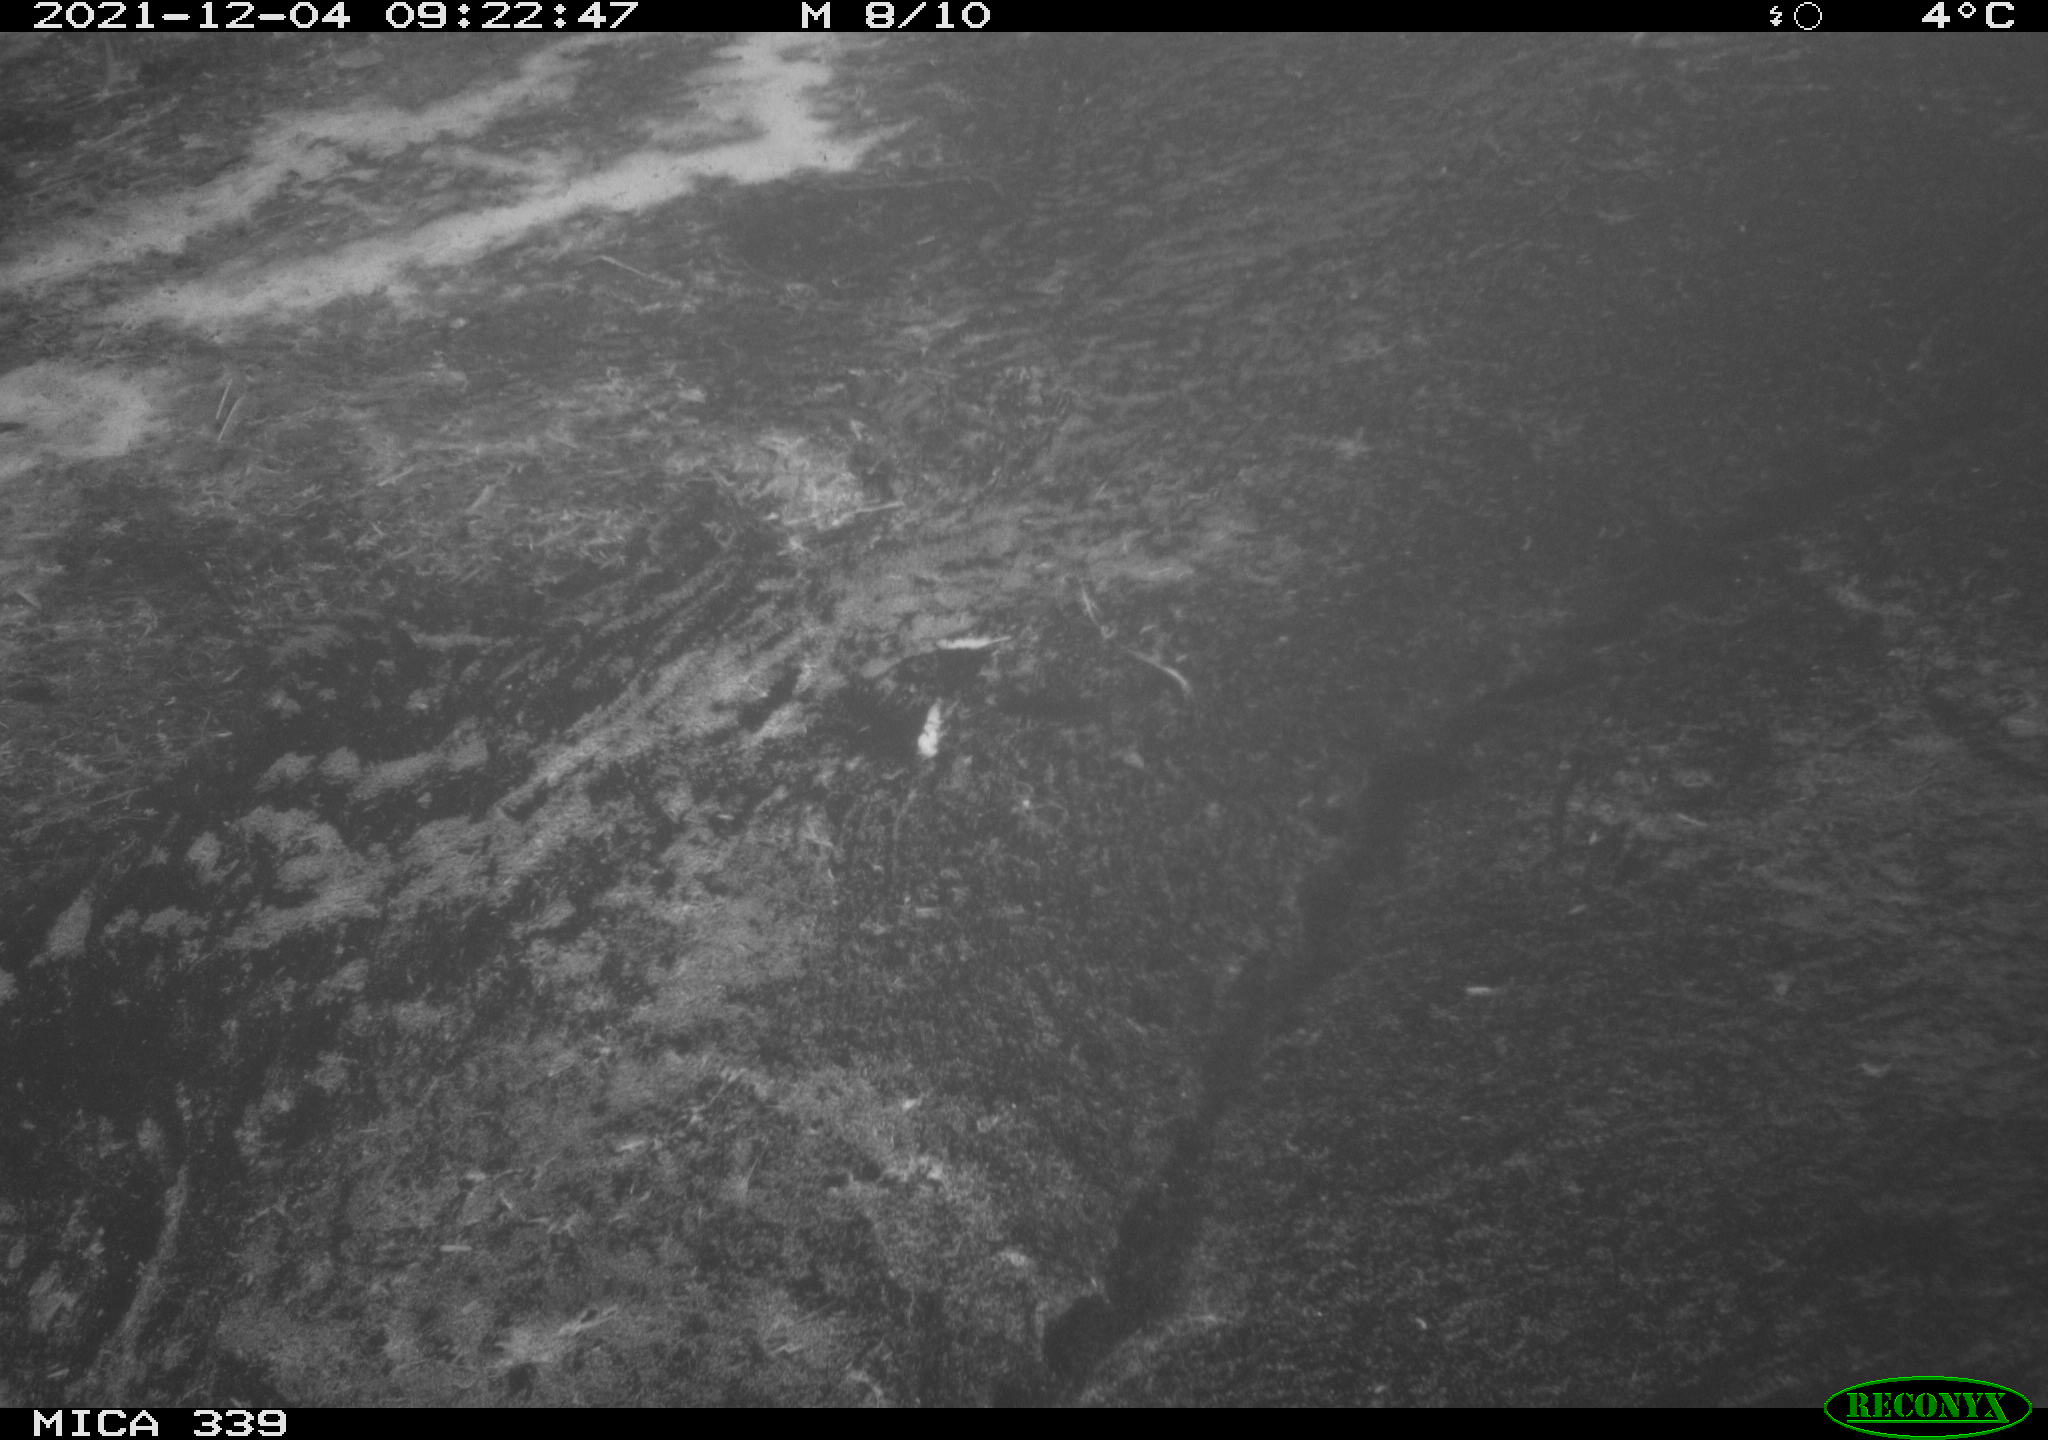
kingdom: Animalia
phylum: Chordata
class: Aves
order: Gruiformes
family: Rallidae
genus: Gallinula
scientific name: Gallinula chloropus
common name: Common moorhen
